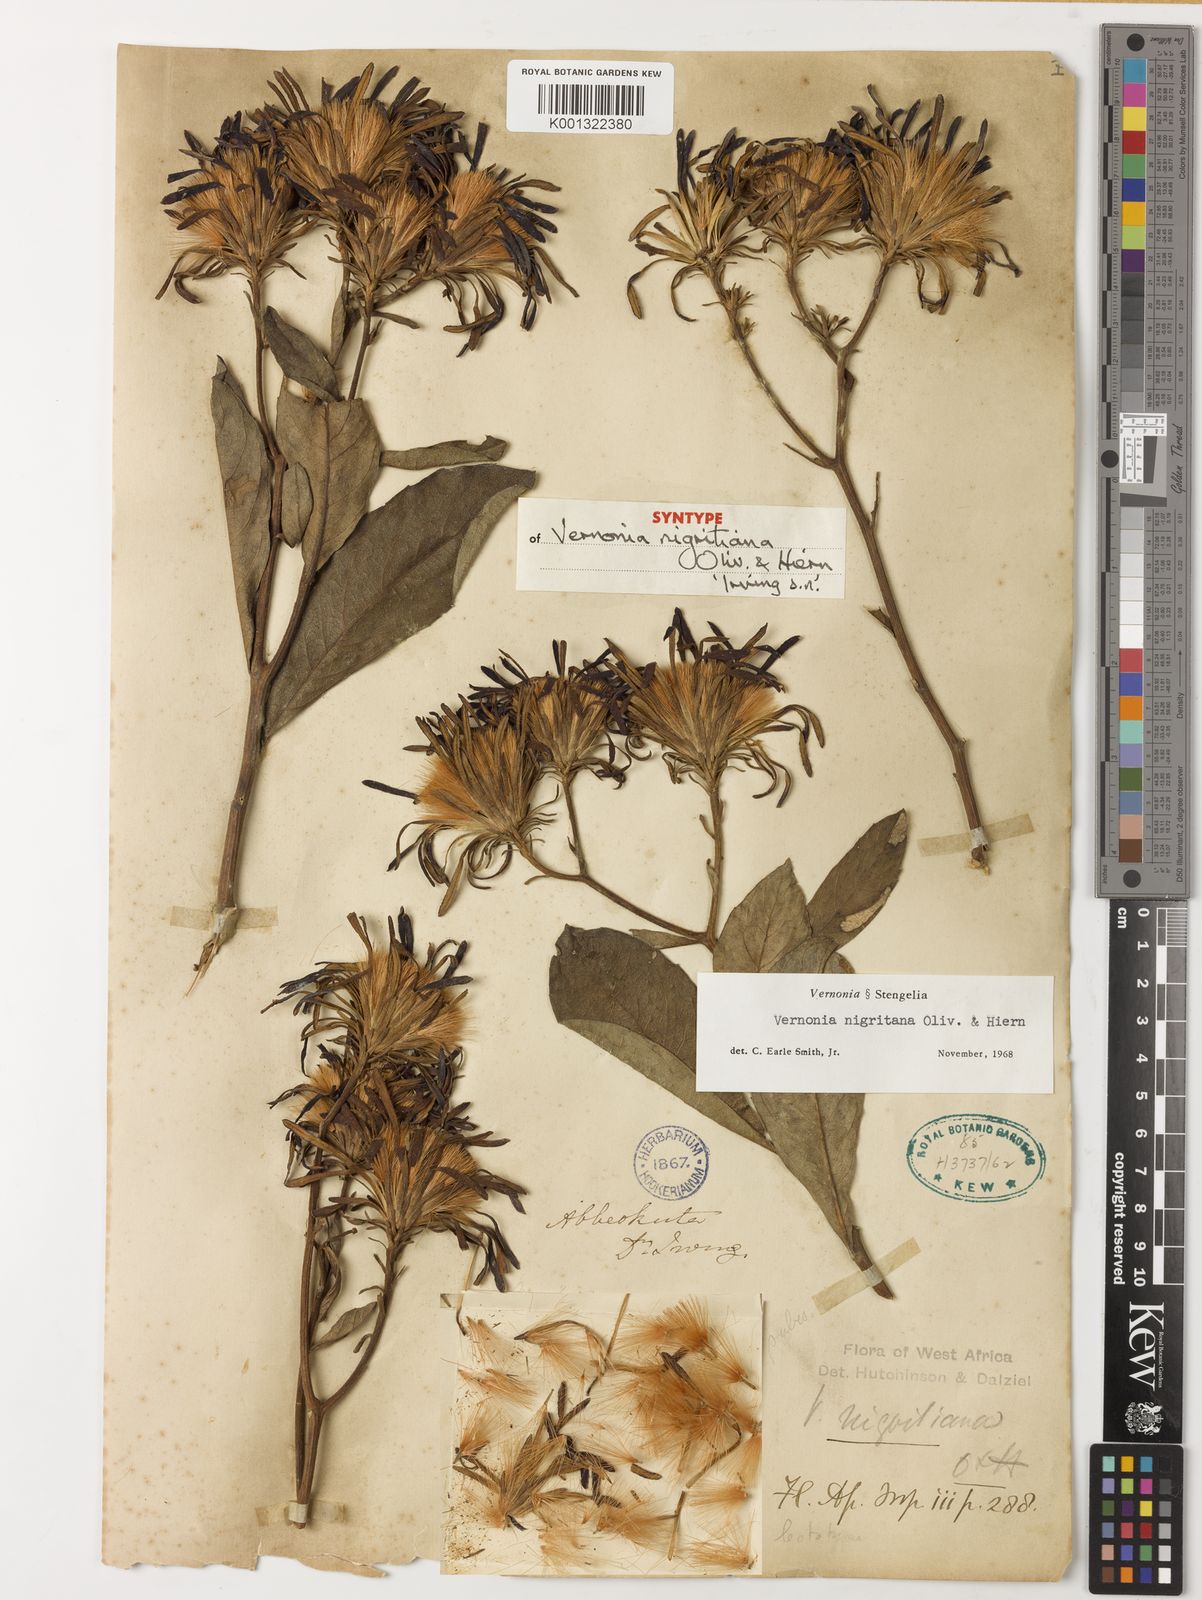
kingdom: Plantae
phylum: Tracheophyta
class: Magnoliopsida
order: Asterales
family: Asteraceae
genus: Linzia
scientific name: Linzia nigritiana
